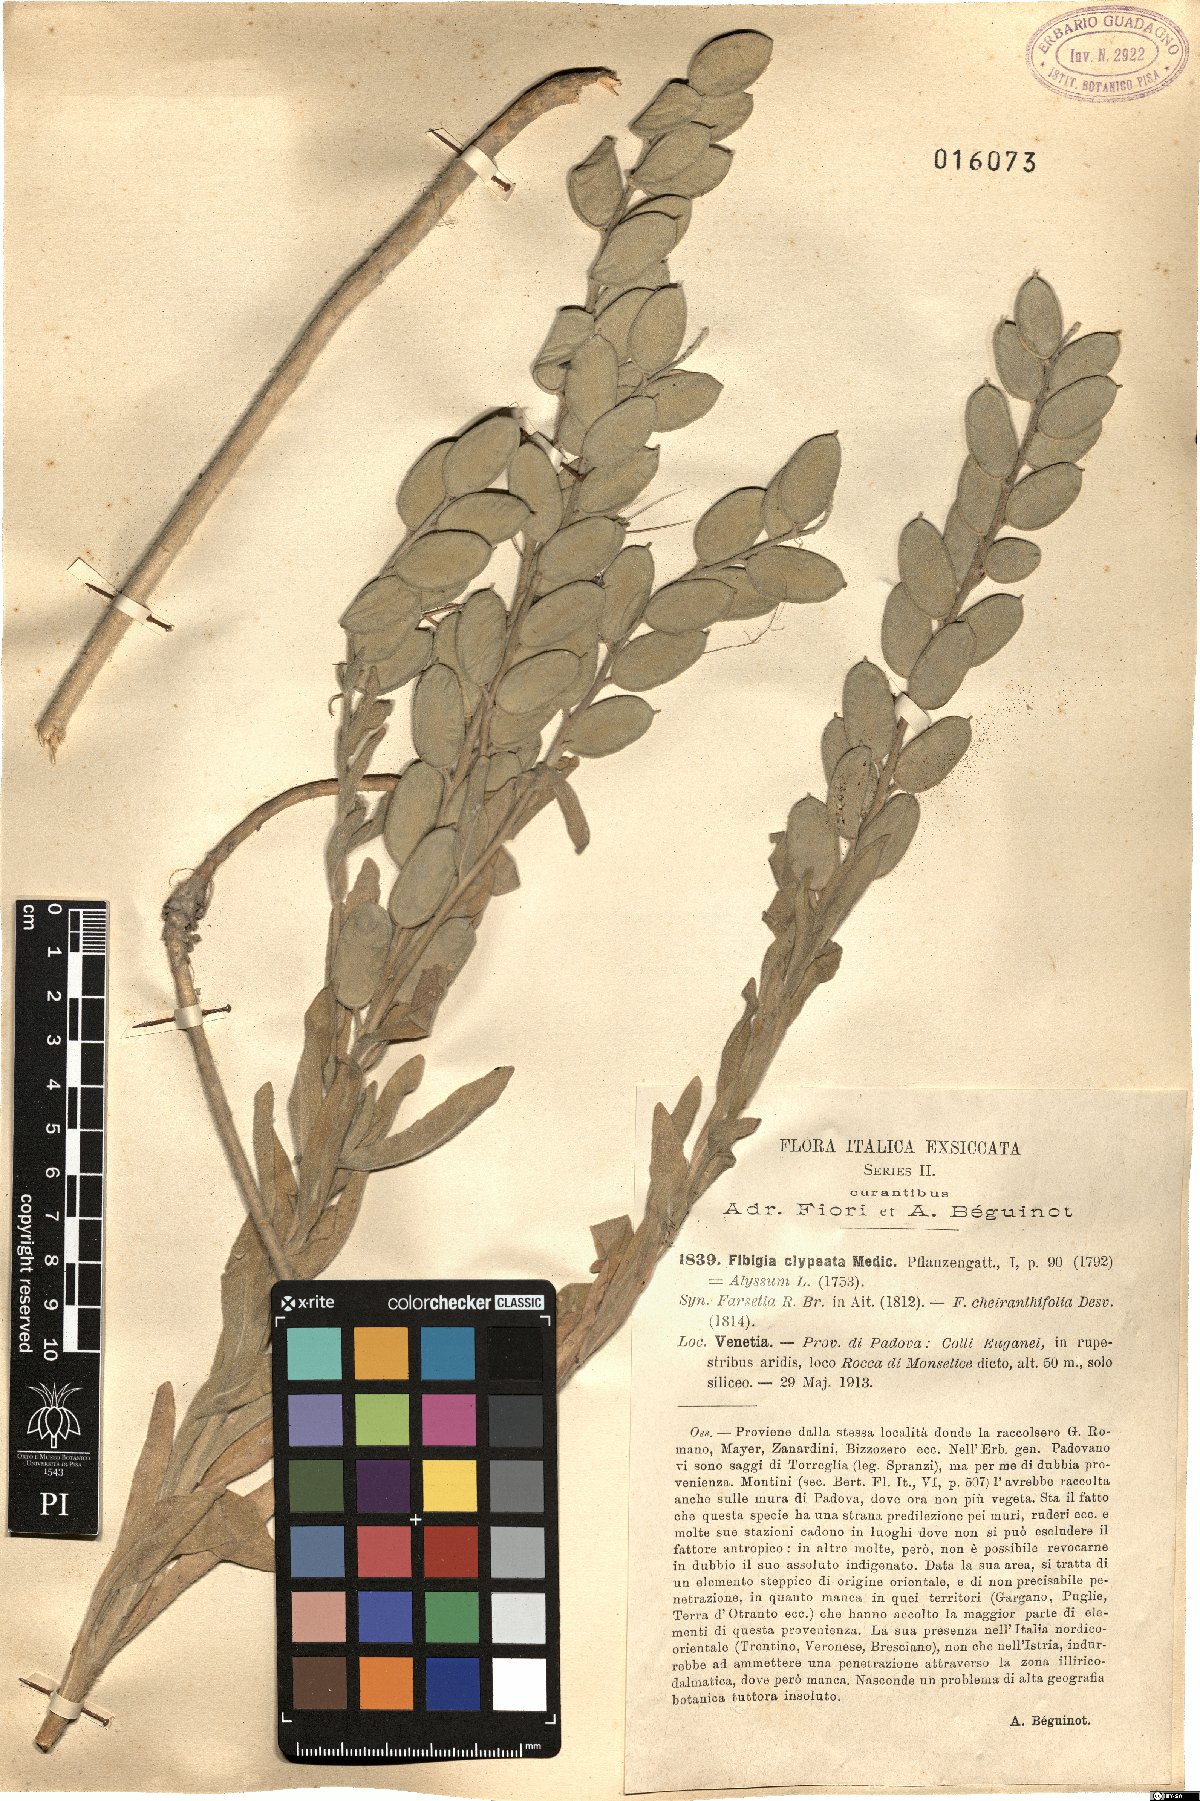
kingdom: Plantae
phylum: Tracheophyta
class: Magnoliopsida
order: Brassicales
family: Brassicaceae
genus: Fibigia
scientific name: Fibigia clypeata
